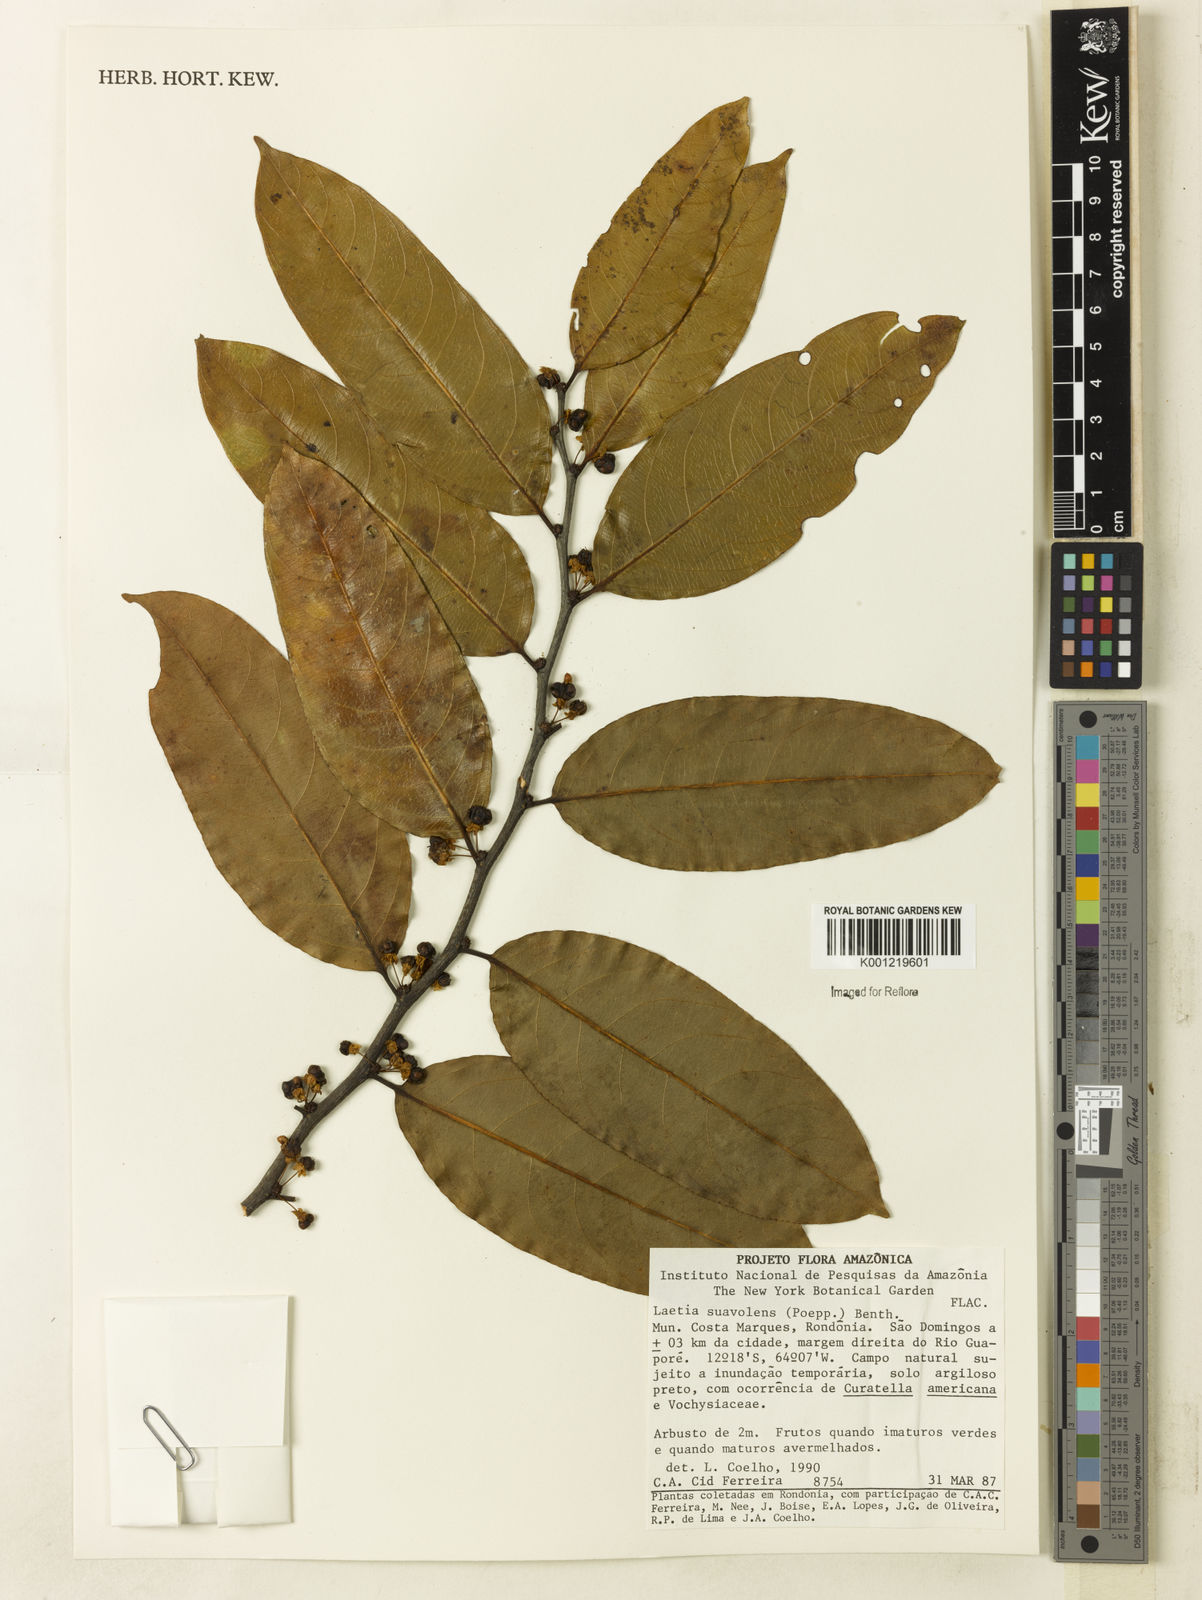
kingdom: Plantae
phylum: Tracheophyta
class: Magnoliopsida
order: Malpighiales
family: Salicaceae
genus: Casearia
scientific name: Casearia suaveolens
